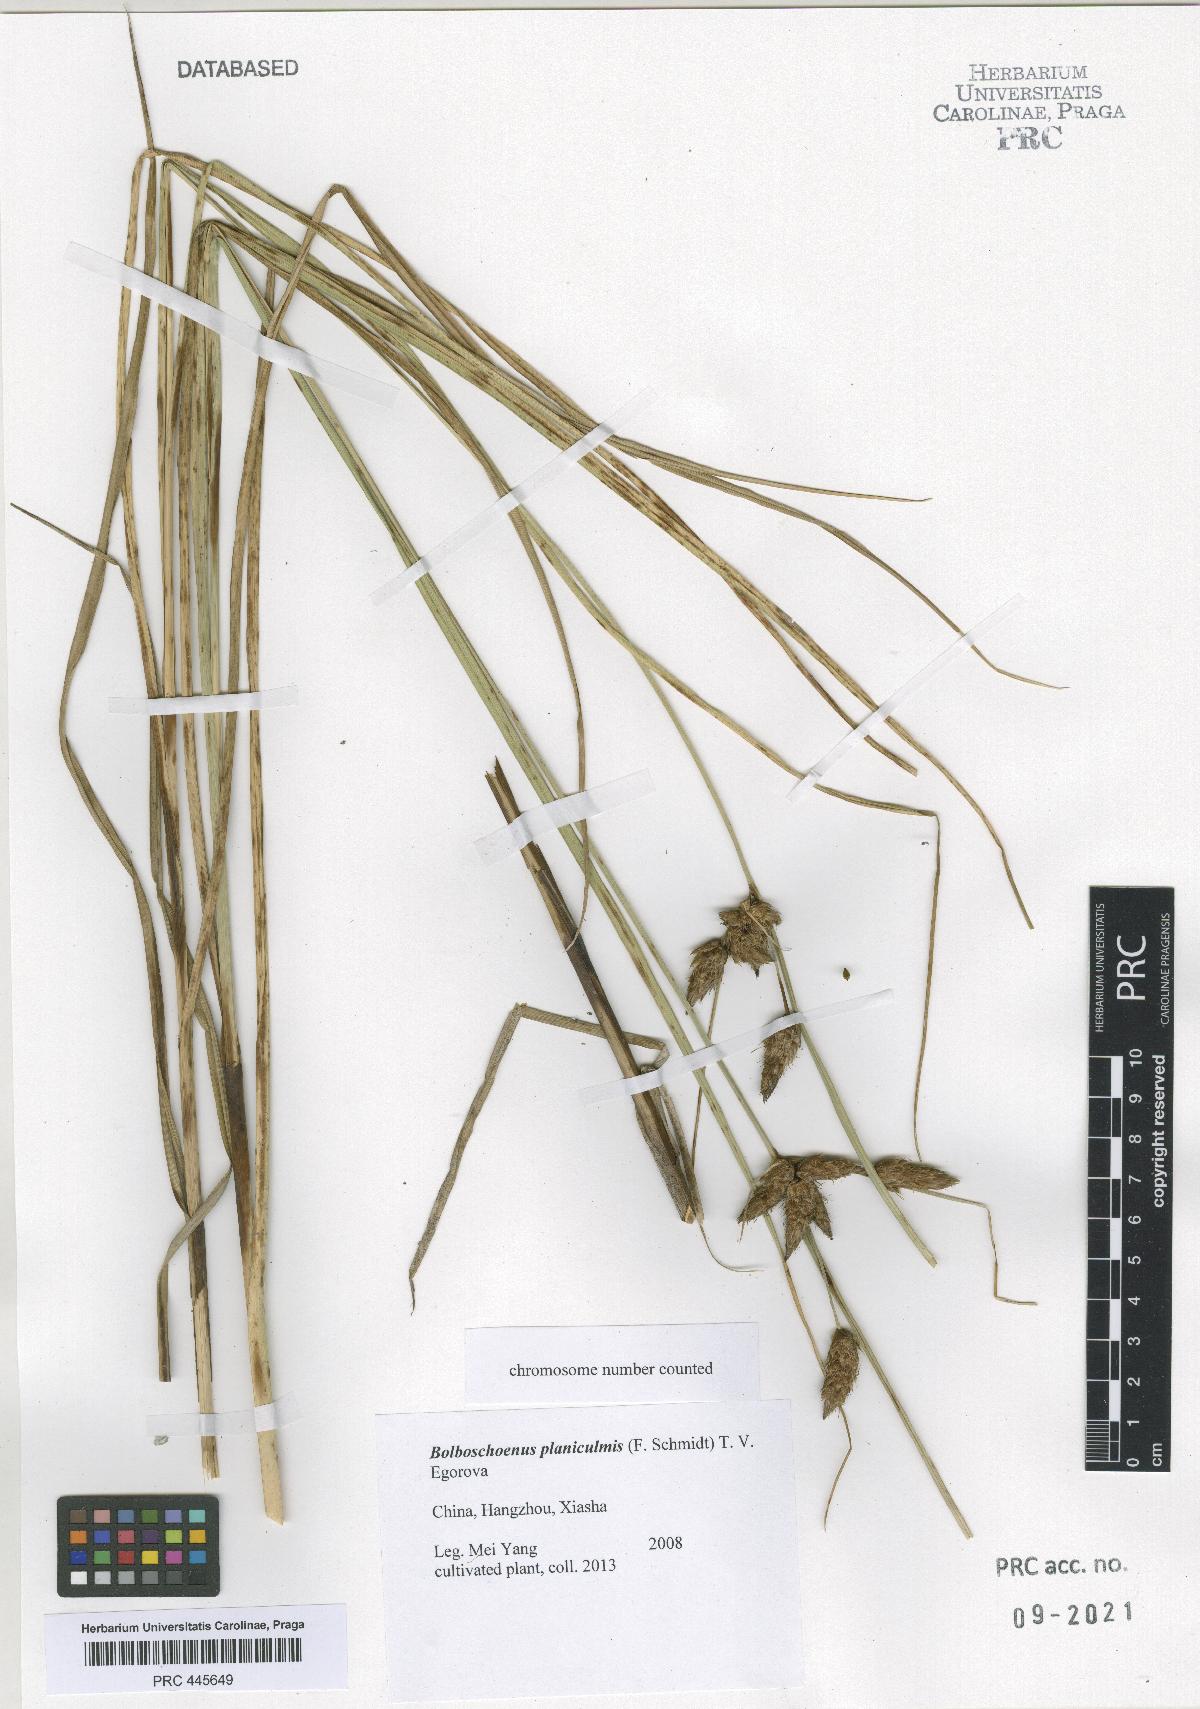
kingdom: Plantae
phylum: Tracheophyta
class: Liliopsida
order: Poales
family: Cyperaceae
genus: Bolboschoenus
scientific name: Bolboschoenus planiculmis
